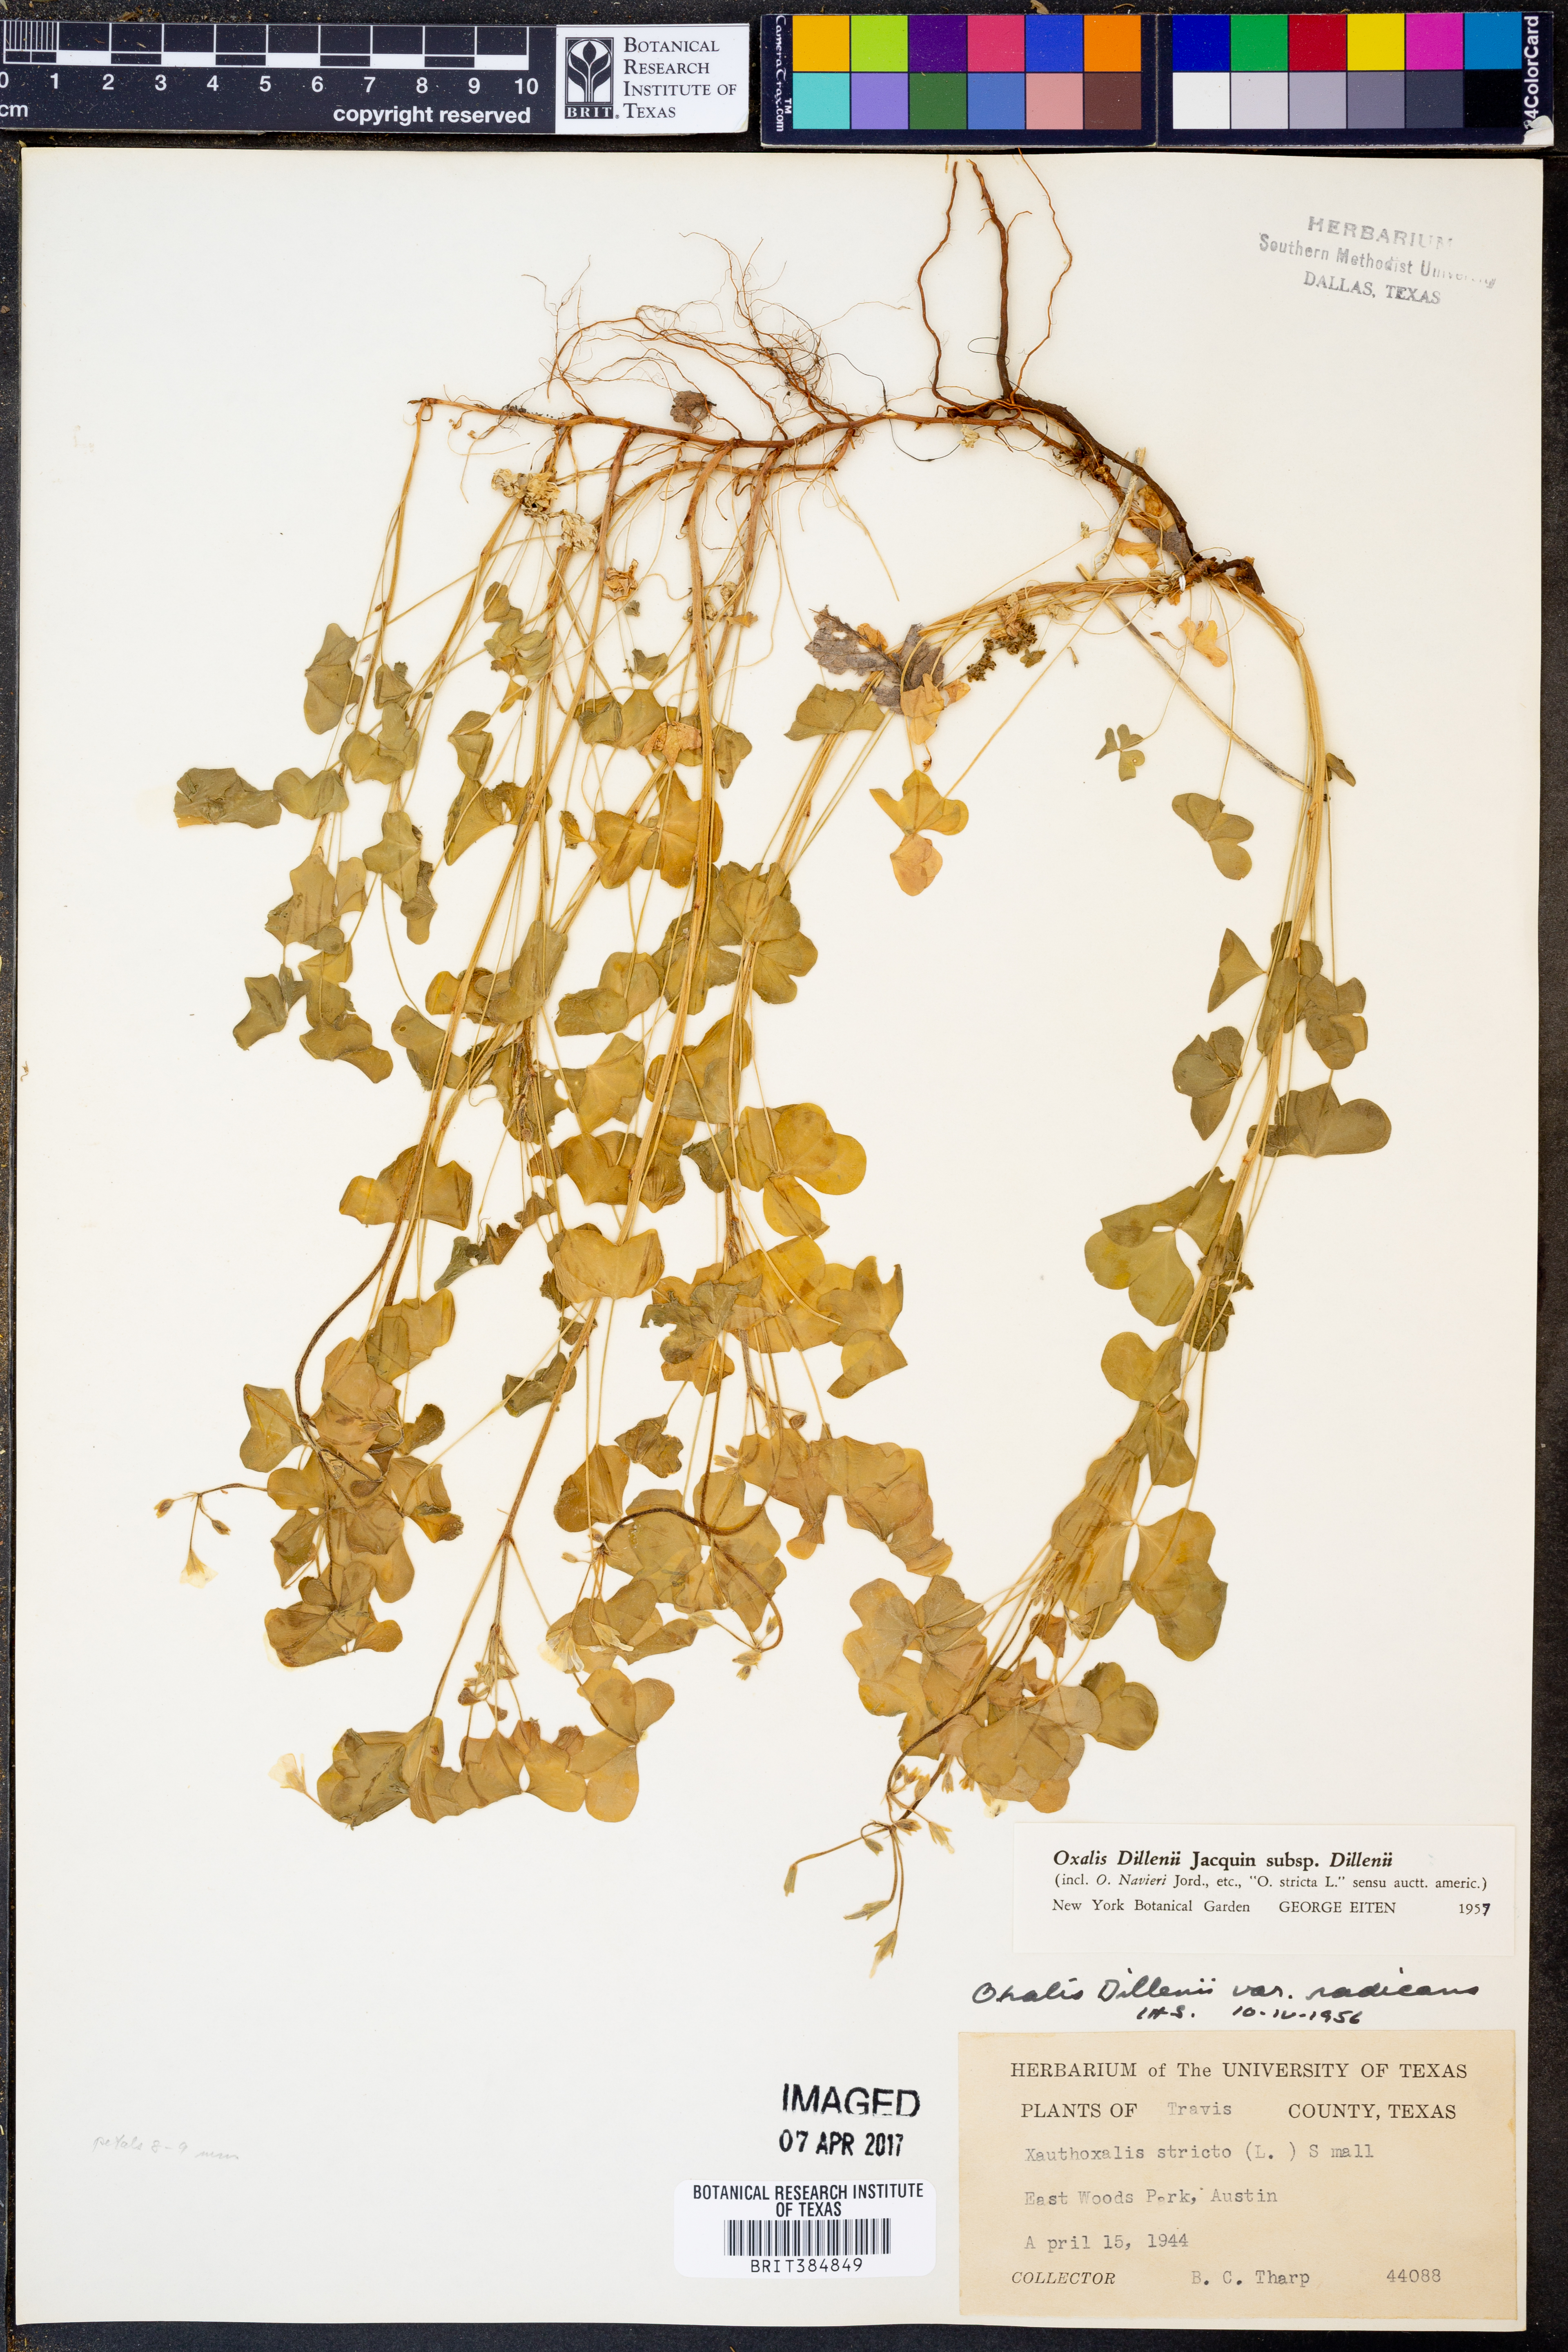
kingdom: Plantae
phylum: Tracheophyta
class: Magnoliopsida
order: Oxalidales
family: Oxalidaceae
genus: Oxalis
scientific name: Oxalis dillenii
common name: Sussex yellow-sorrel
